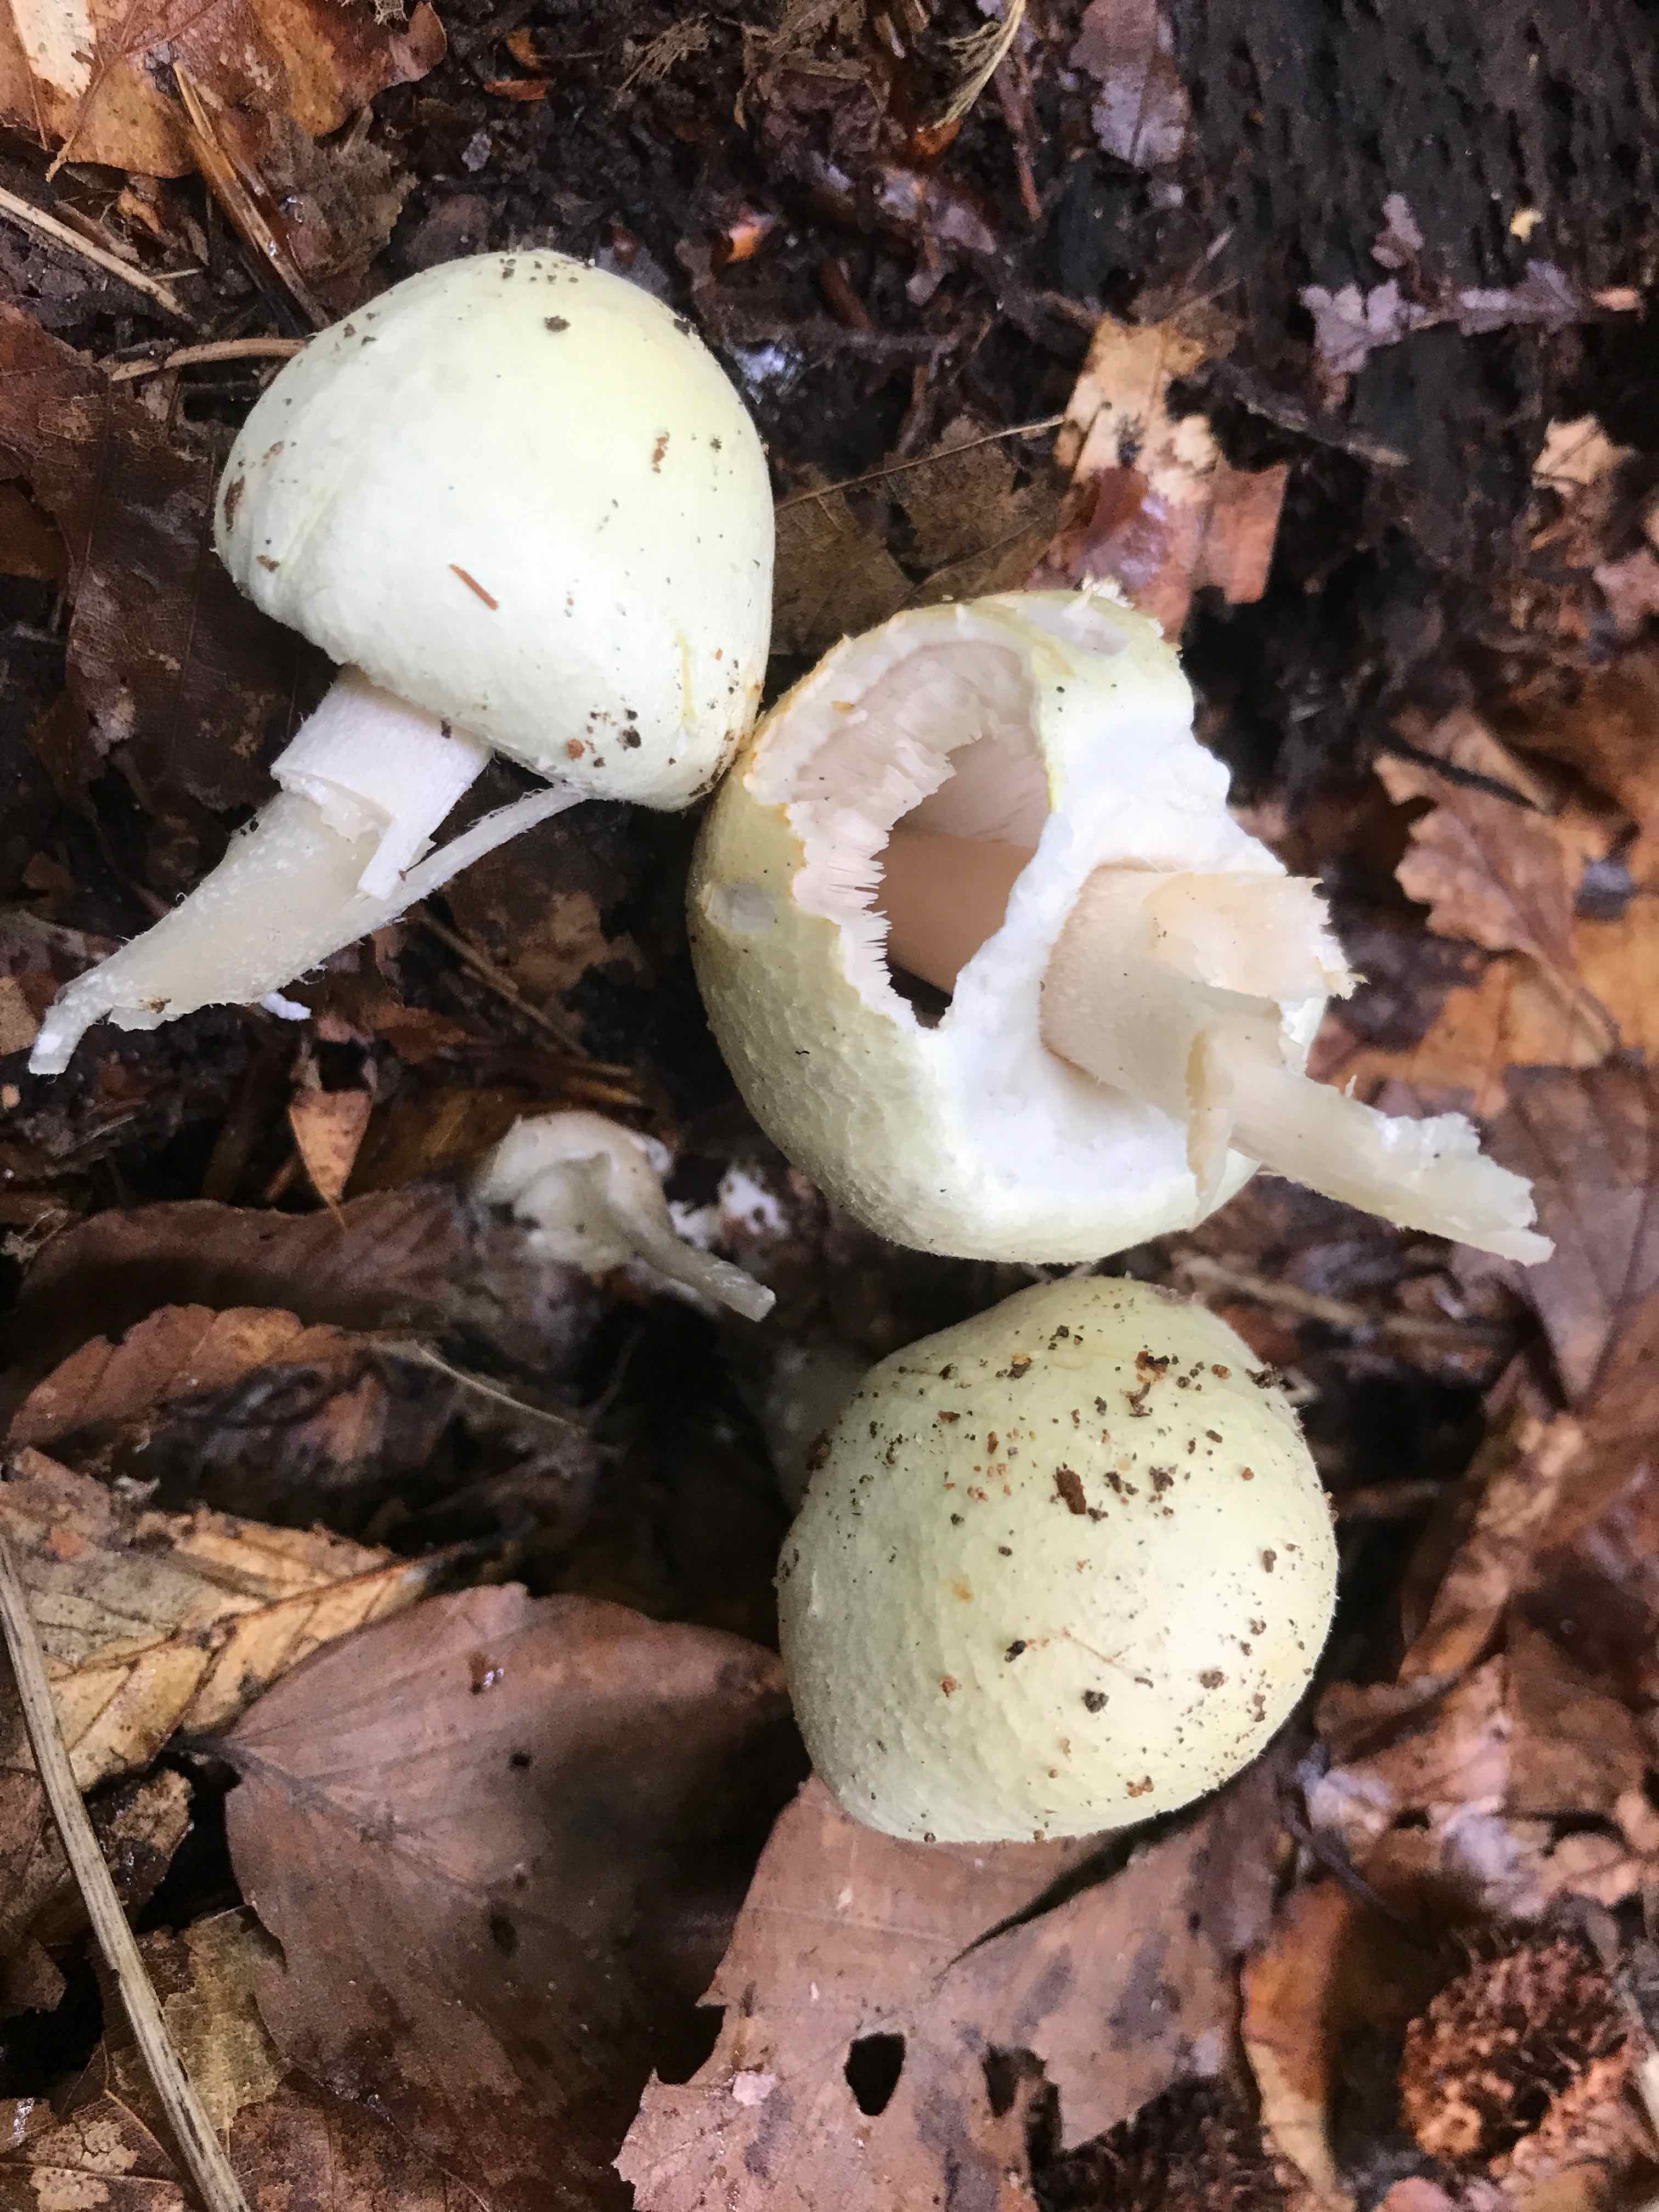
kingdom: Fungi
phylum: Basidiomycota
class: Agaricomycetes
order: Agaricales
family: Agaricaceae
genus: Agaricus
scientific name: Agaricus
